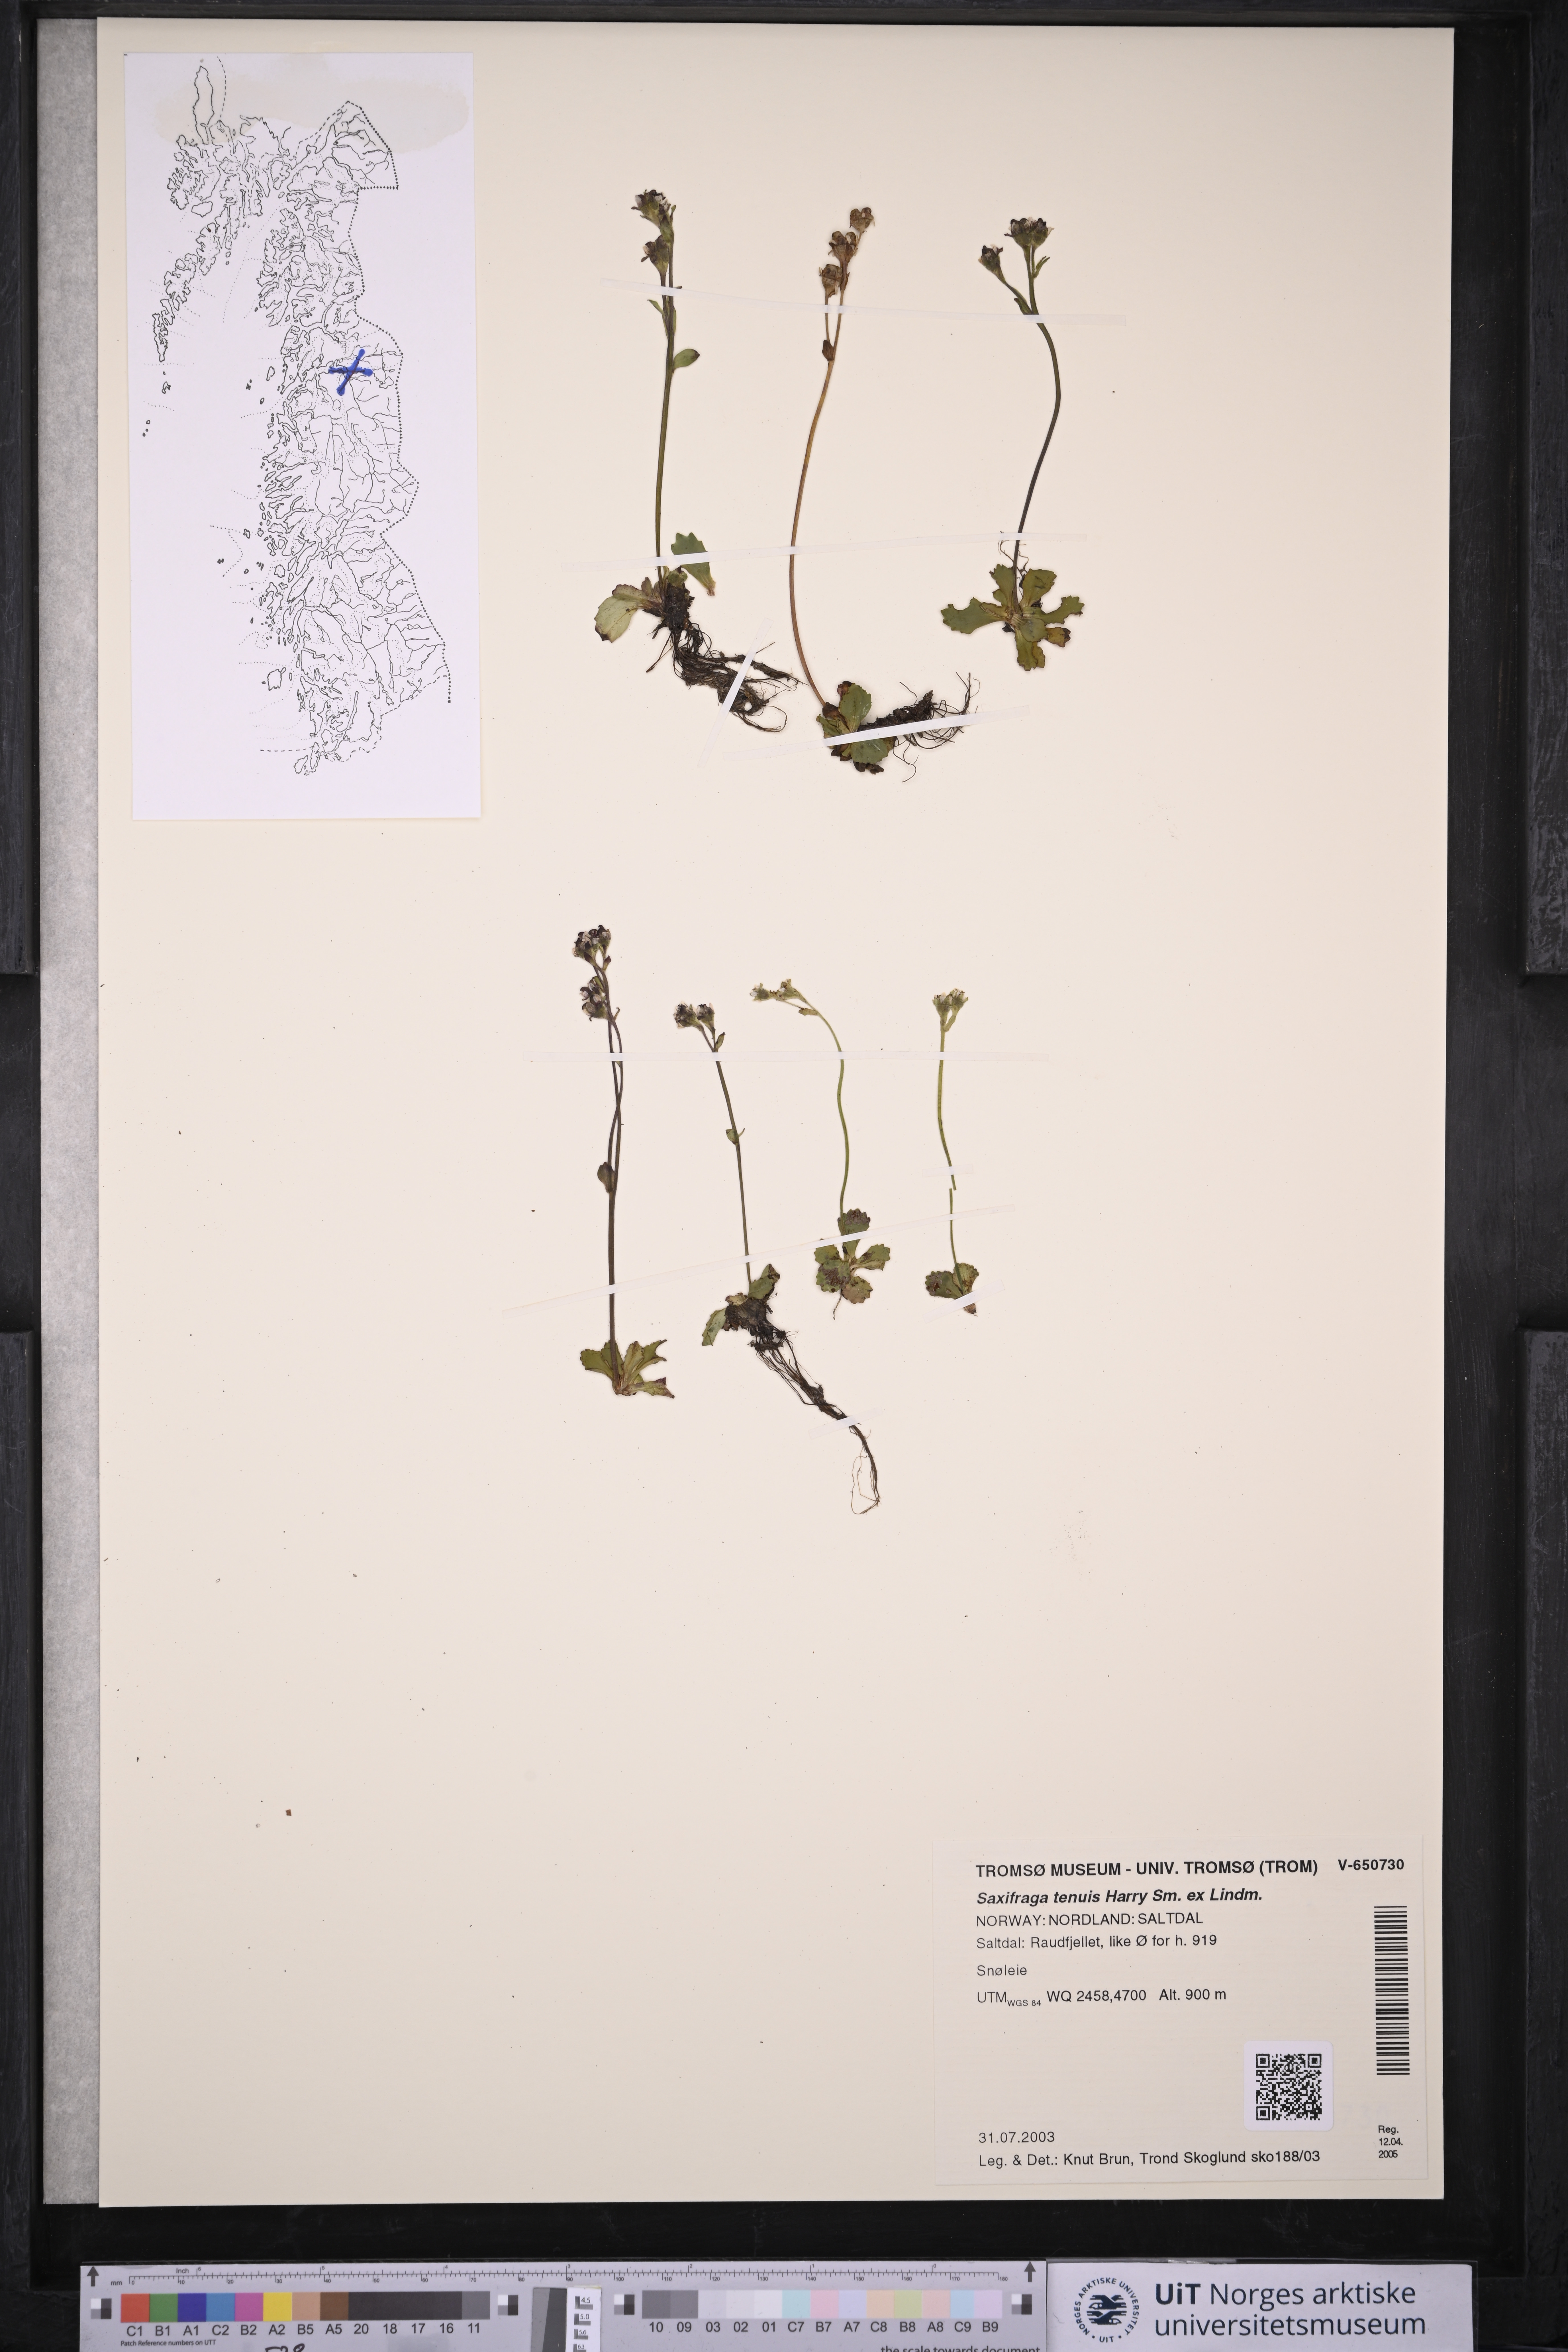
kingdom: Plantae
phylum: Tracheophyta
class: Magnoliopsida
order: Saxifragales
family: Saxifragaceae
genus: Micranthes
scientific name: Micranthes tenuis
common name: Ottertail pass saxifrage
